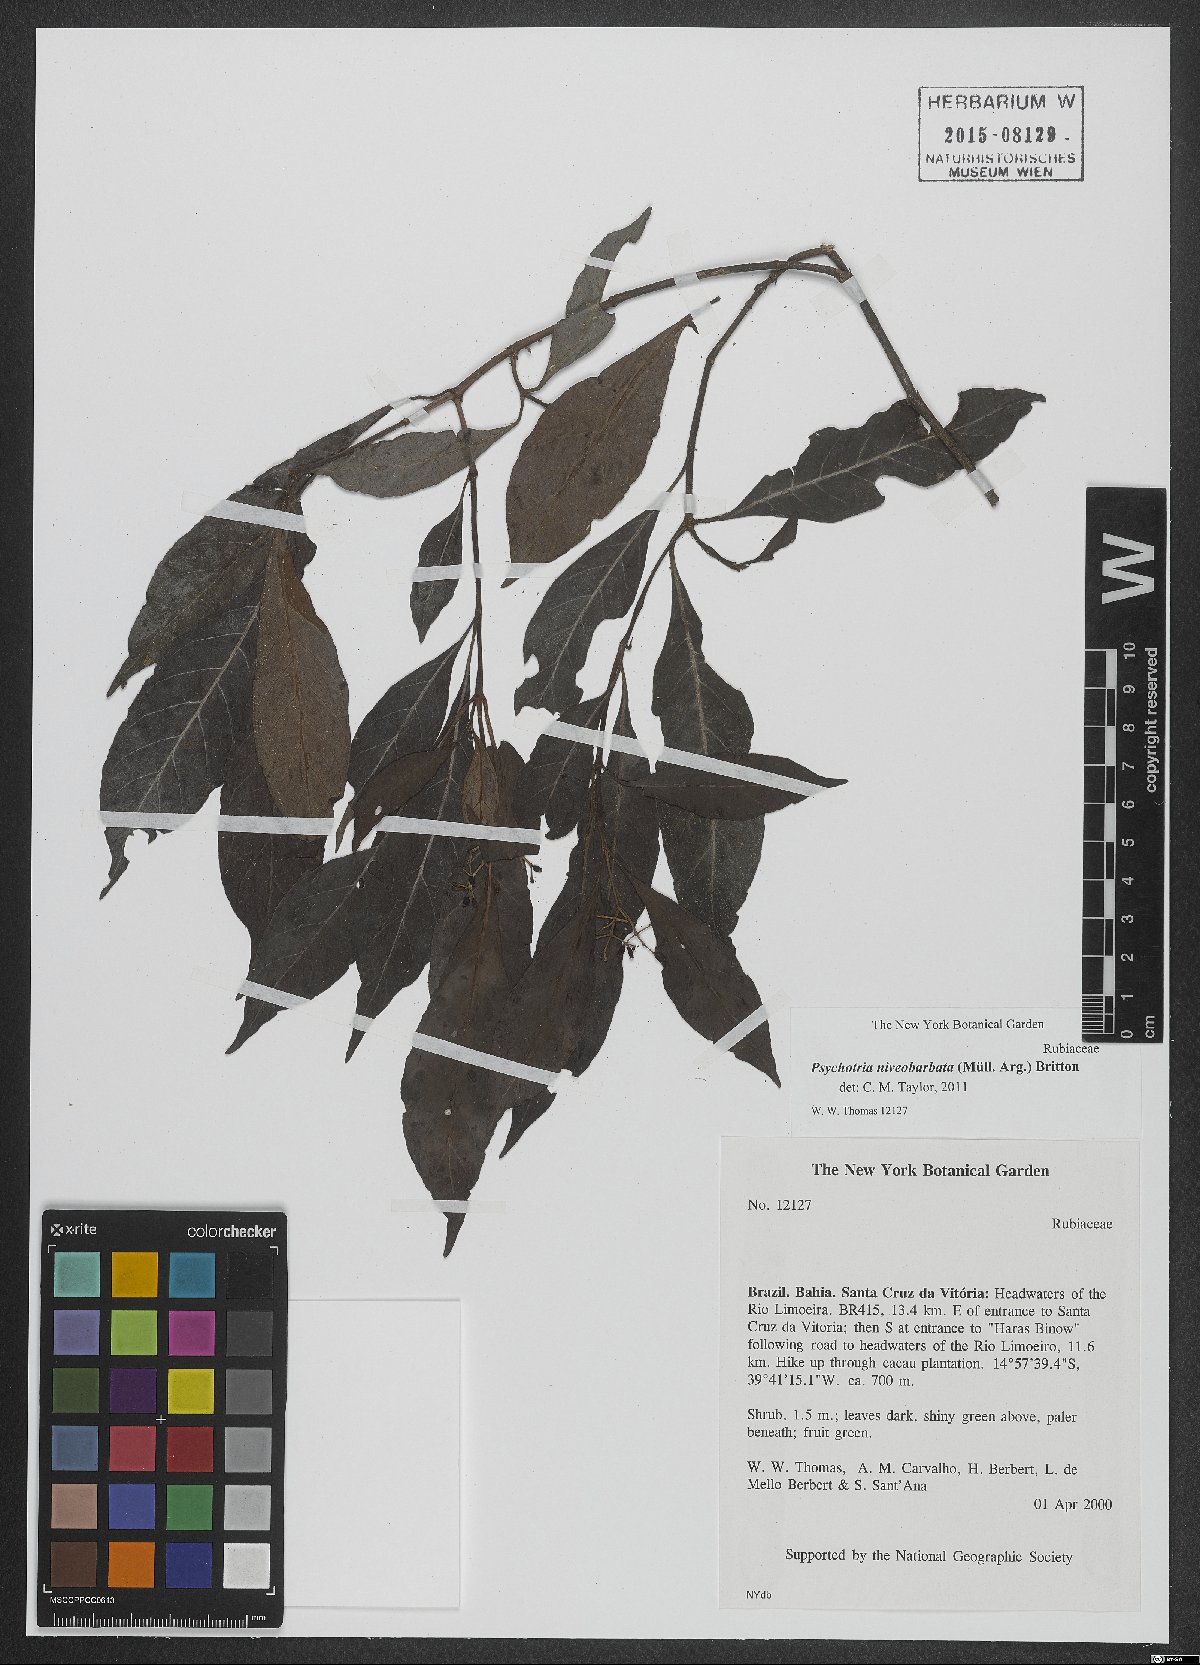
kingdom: Plantae
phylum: Tracheophyta
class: Magnoliopsida
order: Gentianales
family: Rubiaceae
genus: Psychotria
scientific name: Psychotria niveobarbata
